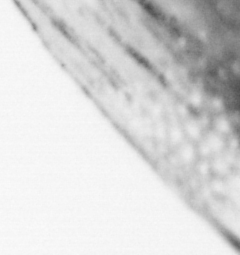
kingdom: Animalia
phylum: Chordata
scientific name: Chordata
